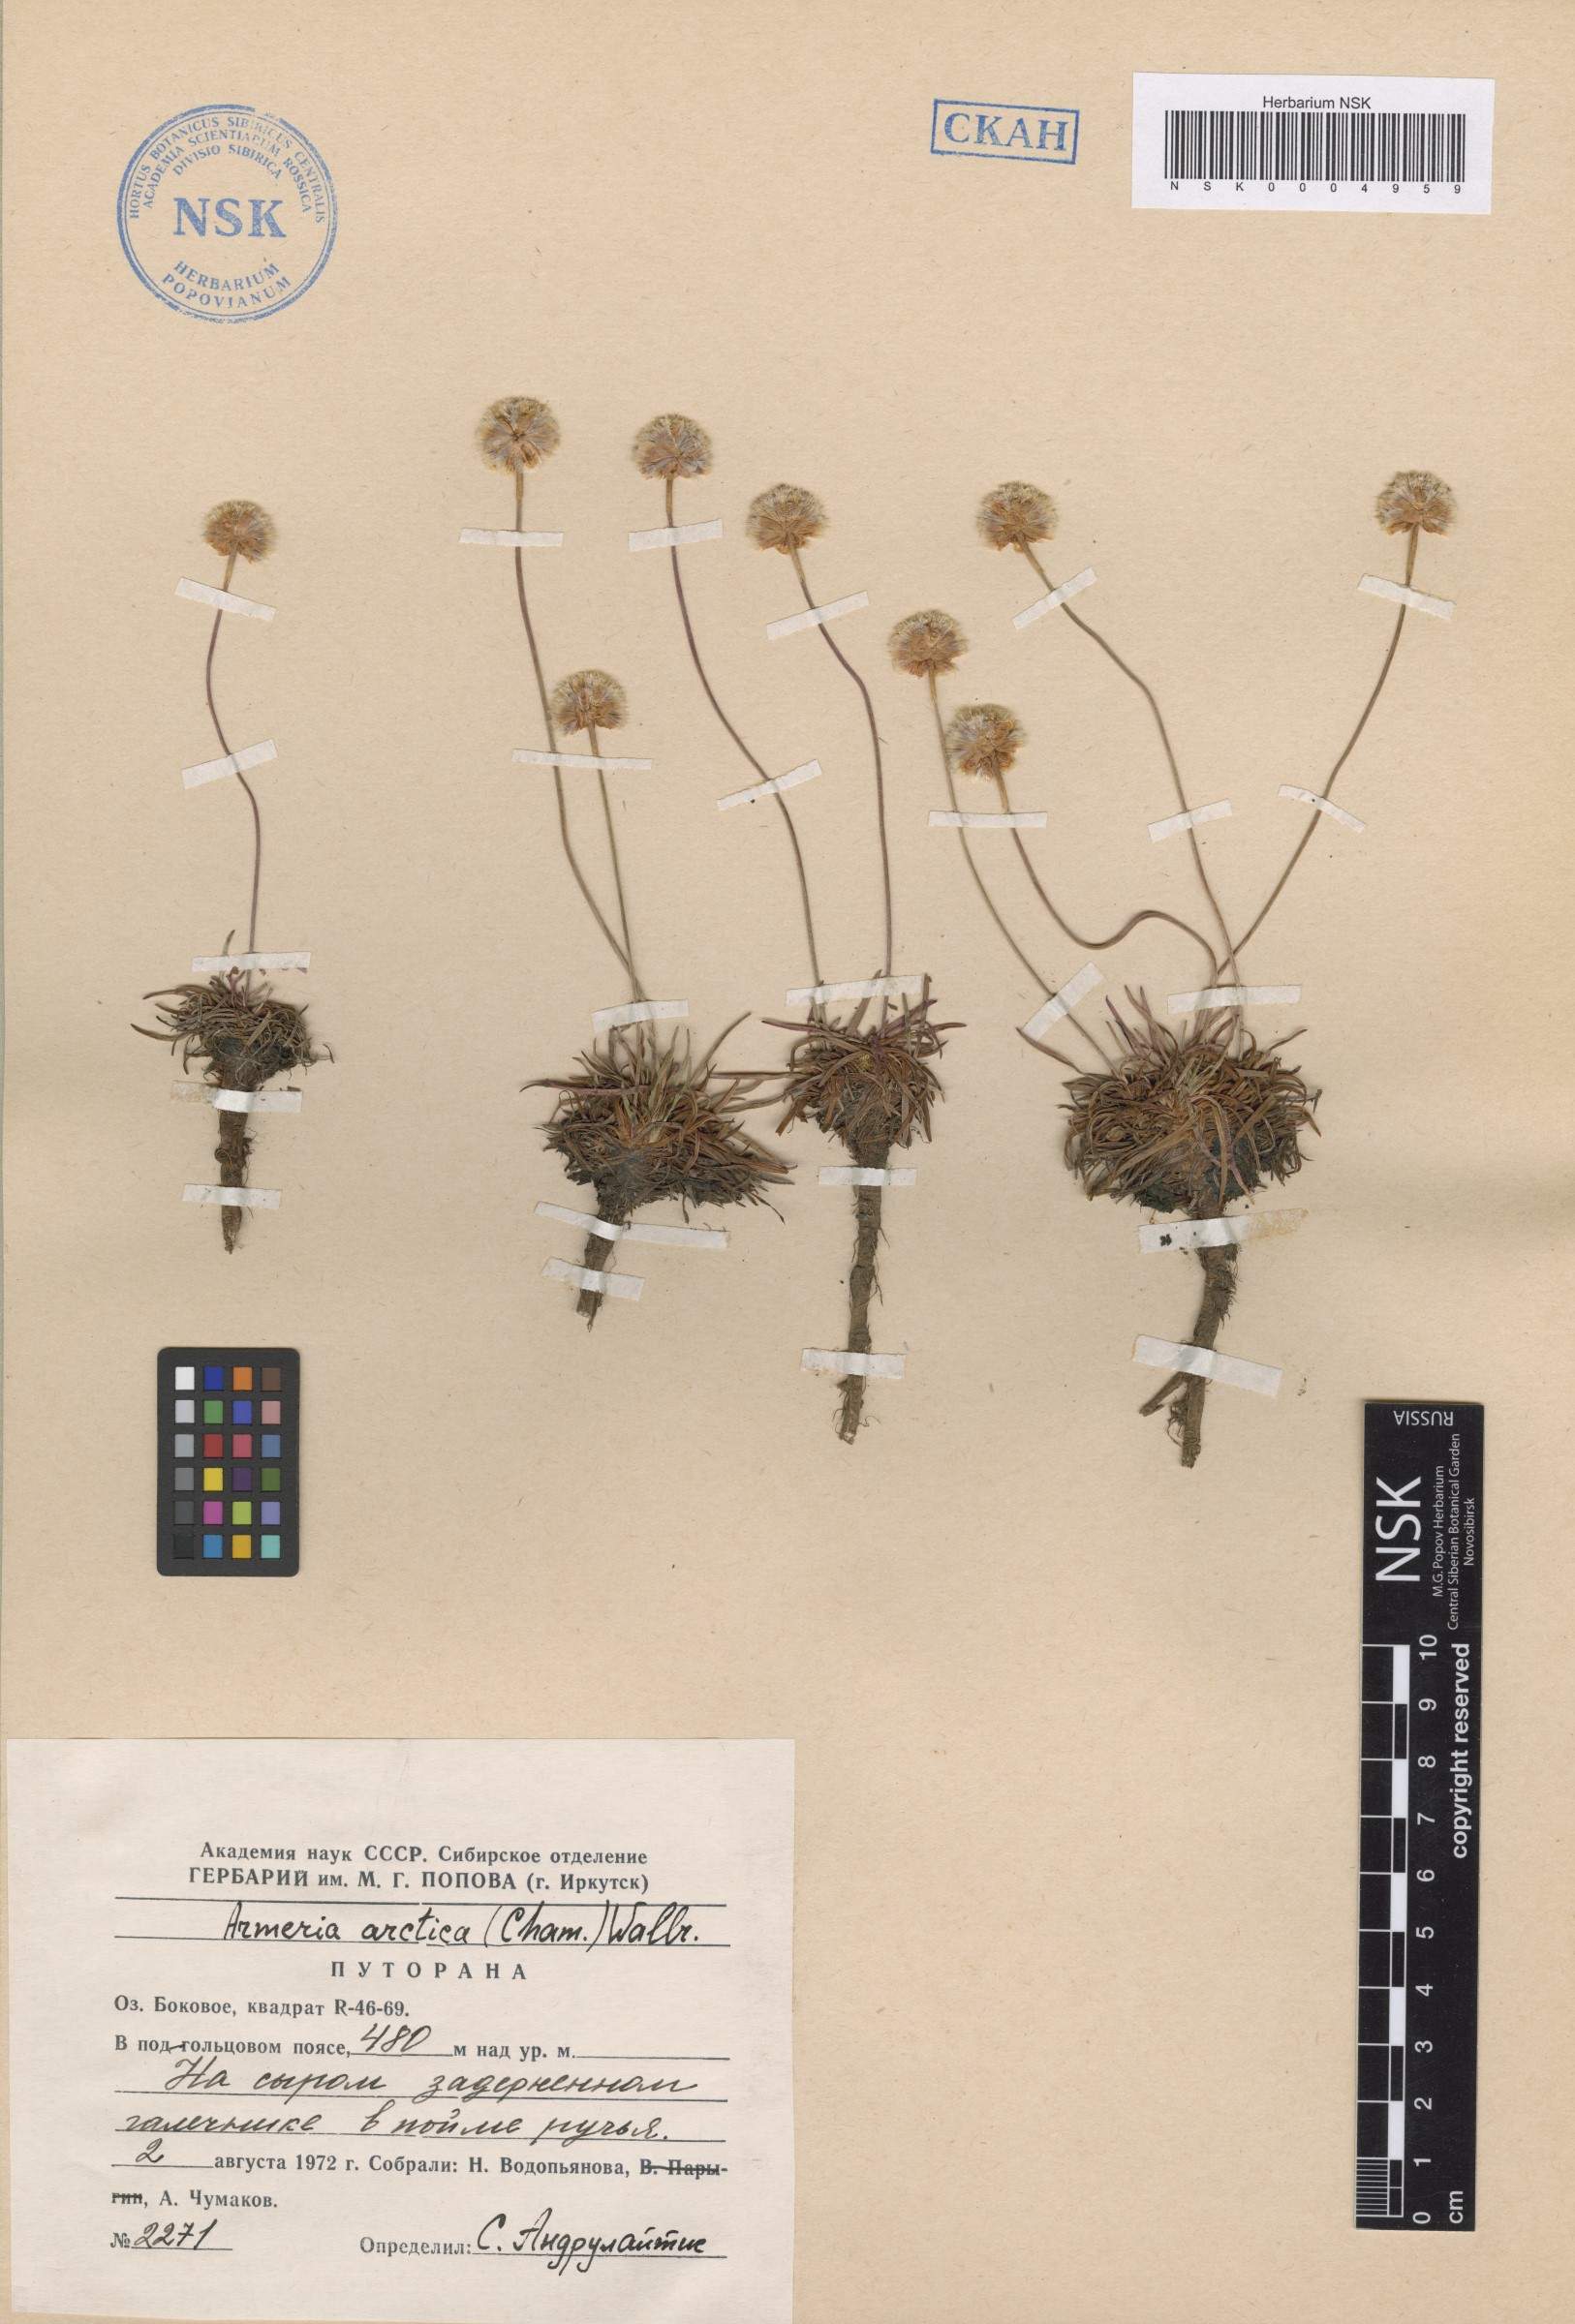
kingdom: Plantae
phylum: Tracheophyta
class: Magnoliopsida
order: Caryophyllales
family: Plumbaginaceae
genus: Armeria
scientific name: Armeria maritima
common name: Thrift
